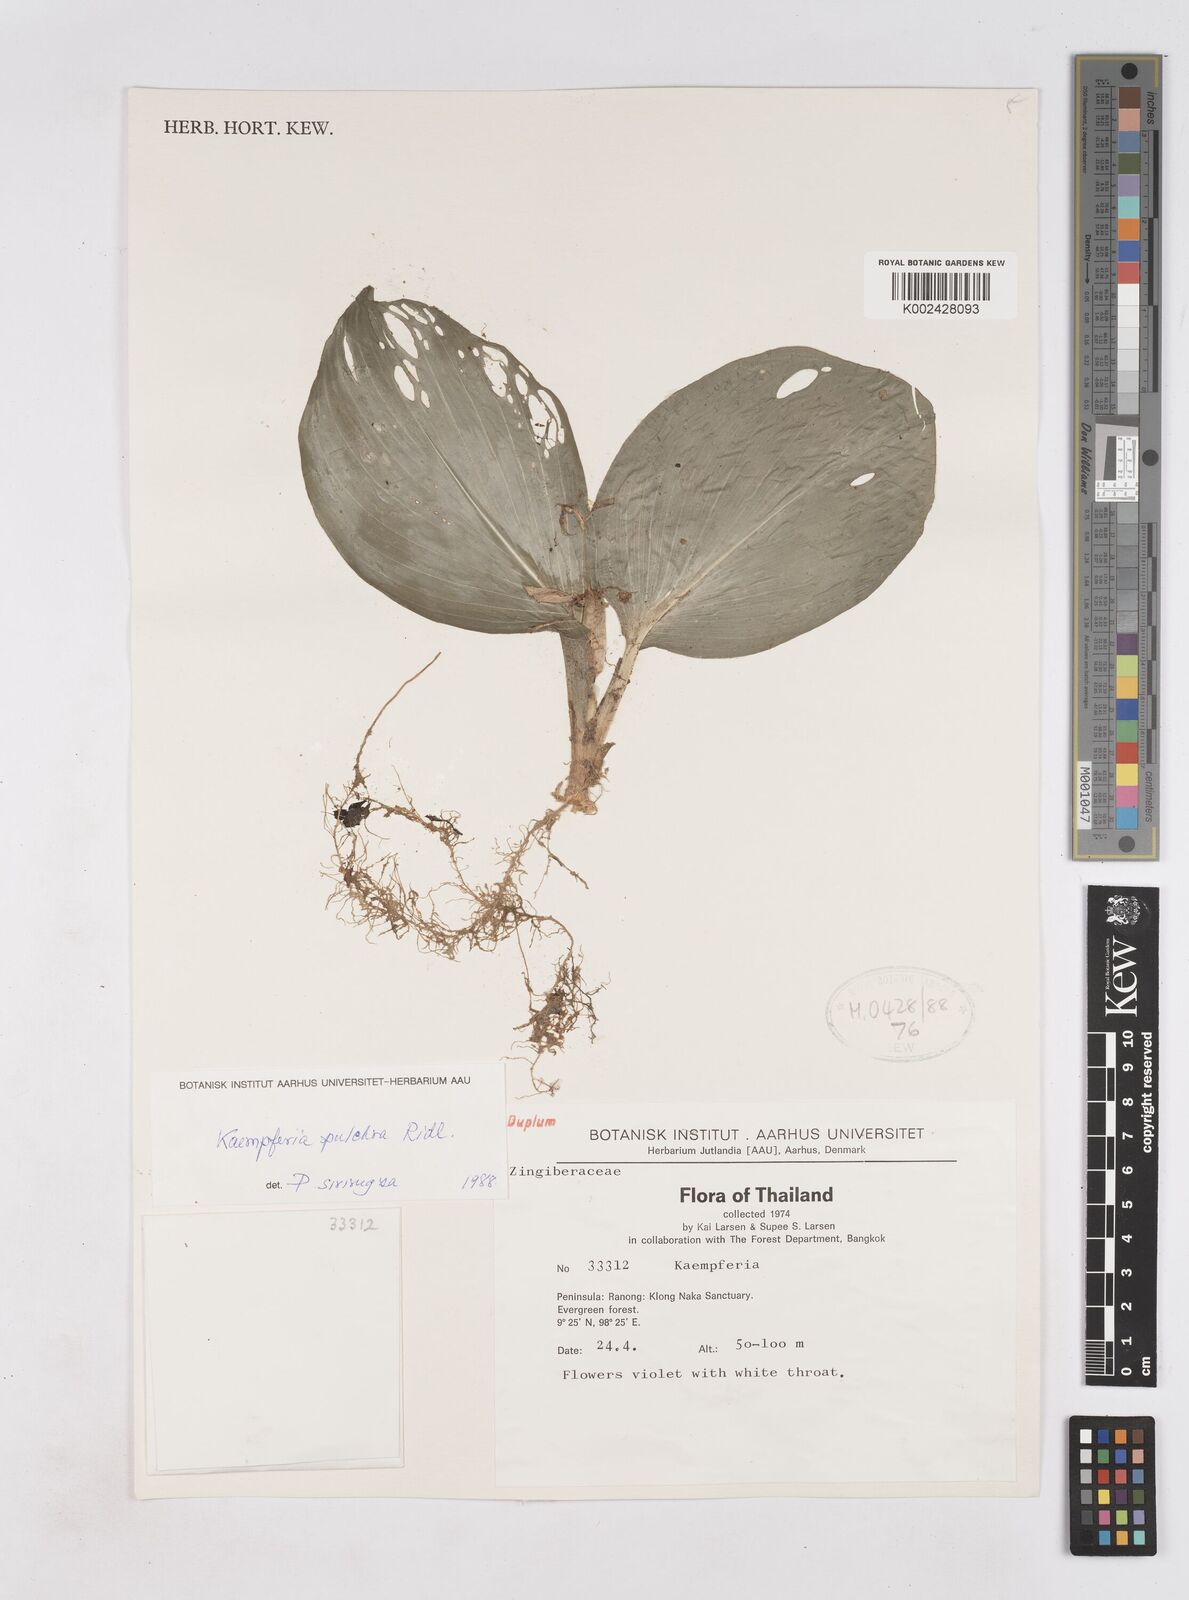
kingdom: Plantae
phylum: Tracheophyta
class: Liliopsida
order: Zingiberales
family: Zingiberaceae
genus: Kaempferia
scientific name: Kaempferia elegans
